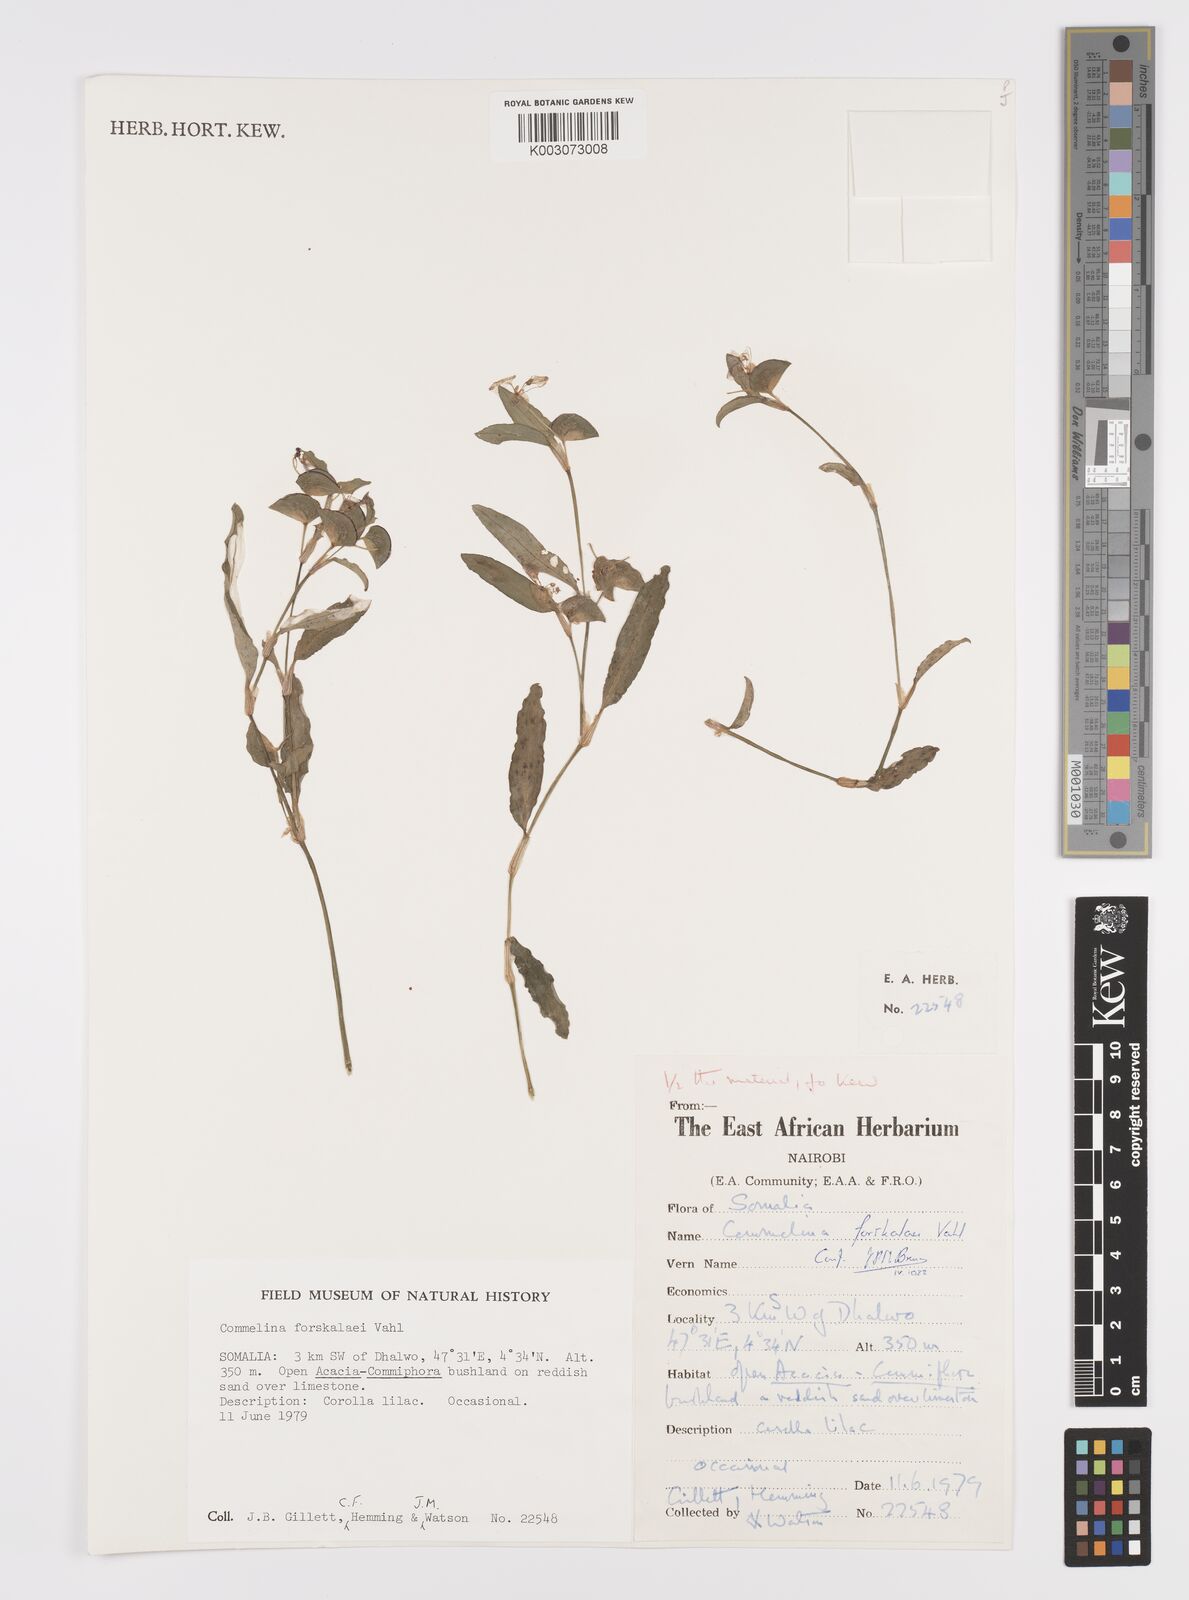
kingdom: Plantae
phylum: Tracheophyta
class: Liliopsida
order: Commelinales
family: Commelinaceae
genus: Commelina
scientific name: Commelina forskaolii
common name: Rat's ear
